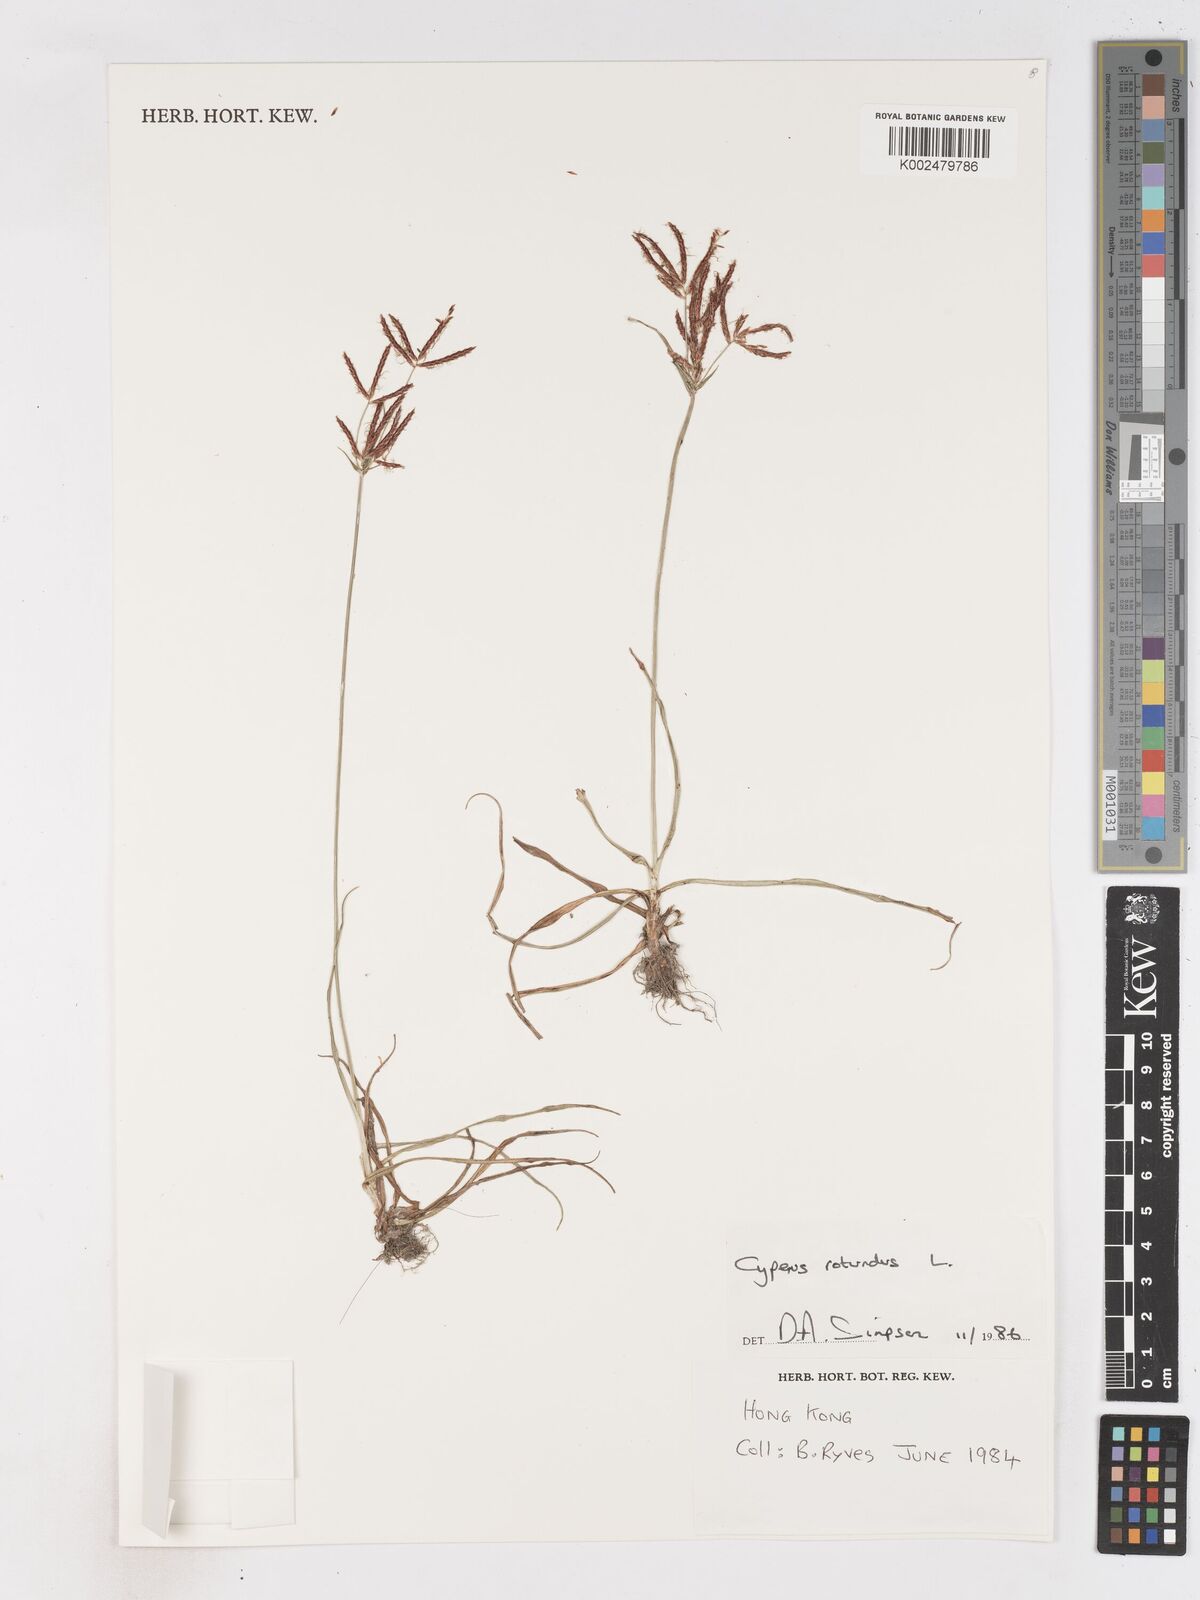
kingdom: Plantae
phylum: Tracheophyta
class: Liliopsida
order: Poales
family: Cyperaceae
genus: Cyperus
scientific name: Cyperus rotundus
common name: Nutgrass
